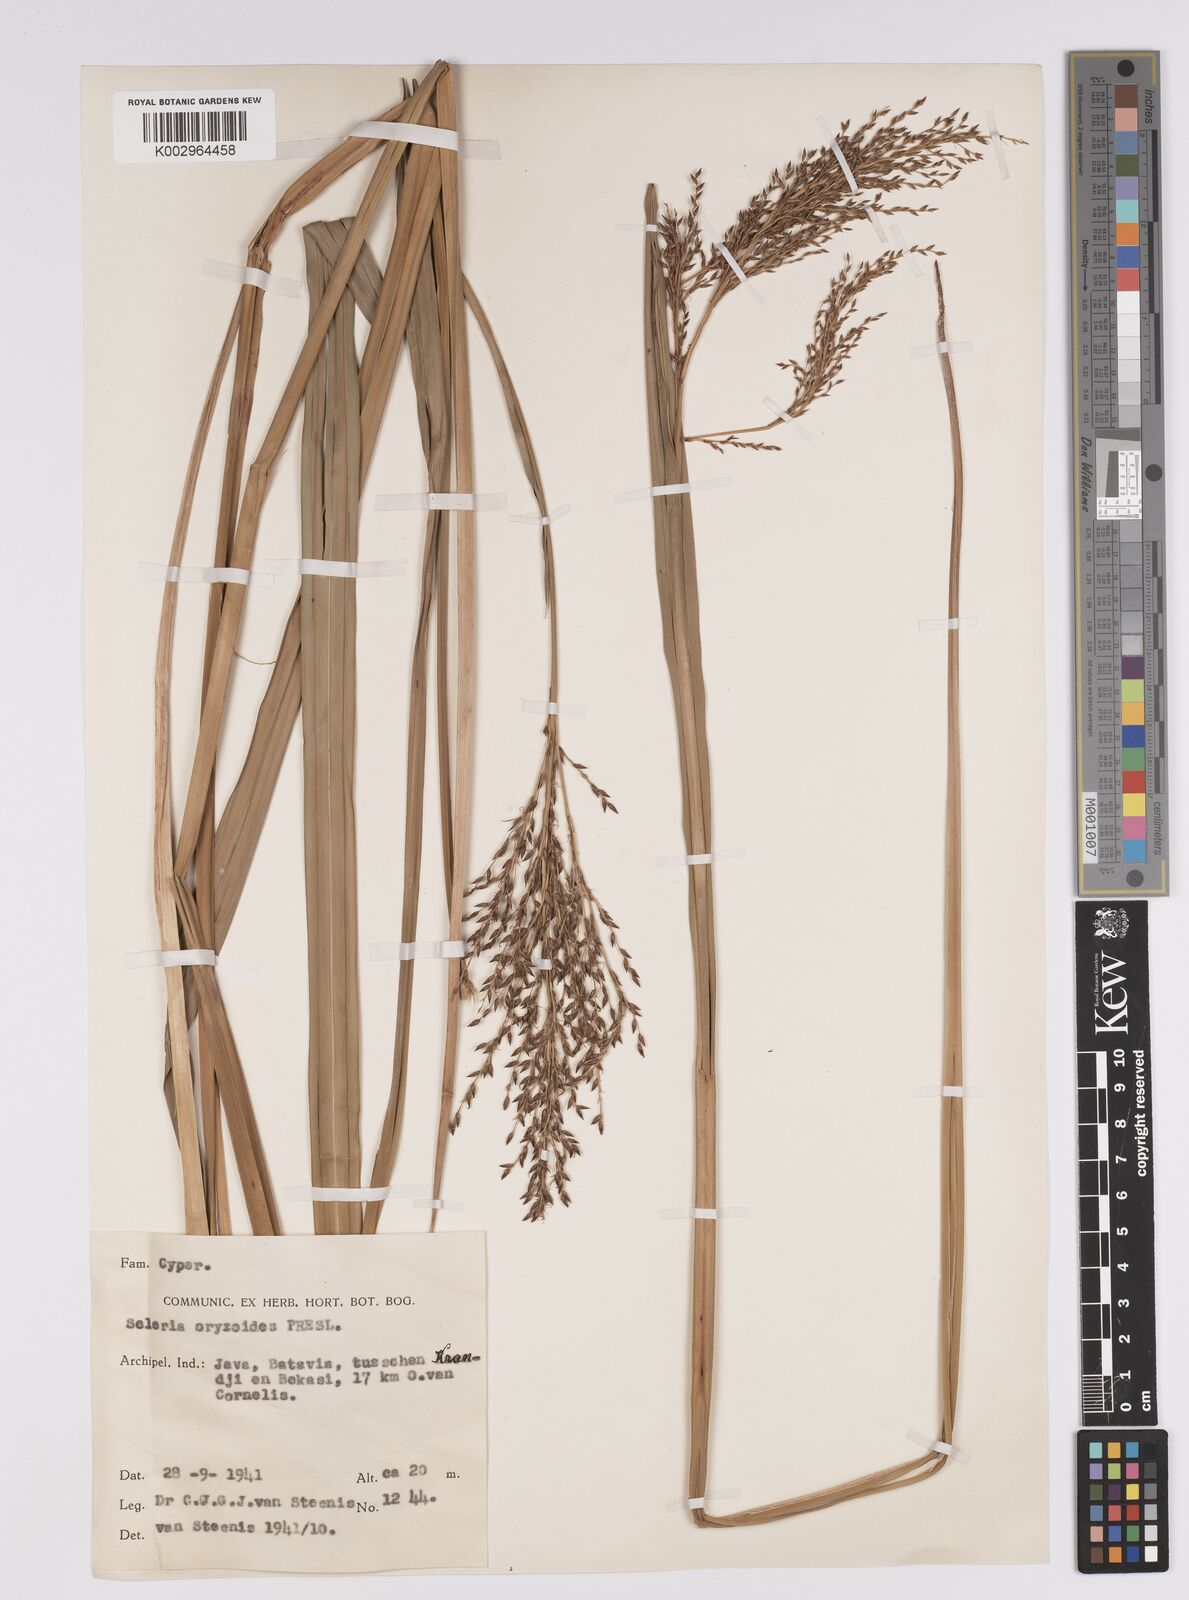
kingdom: Plantae
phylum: Tracheophyta
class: Liliopsida
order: Poales
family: Cyperaceae
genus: Scleria
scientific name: Scleria poiformis
